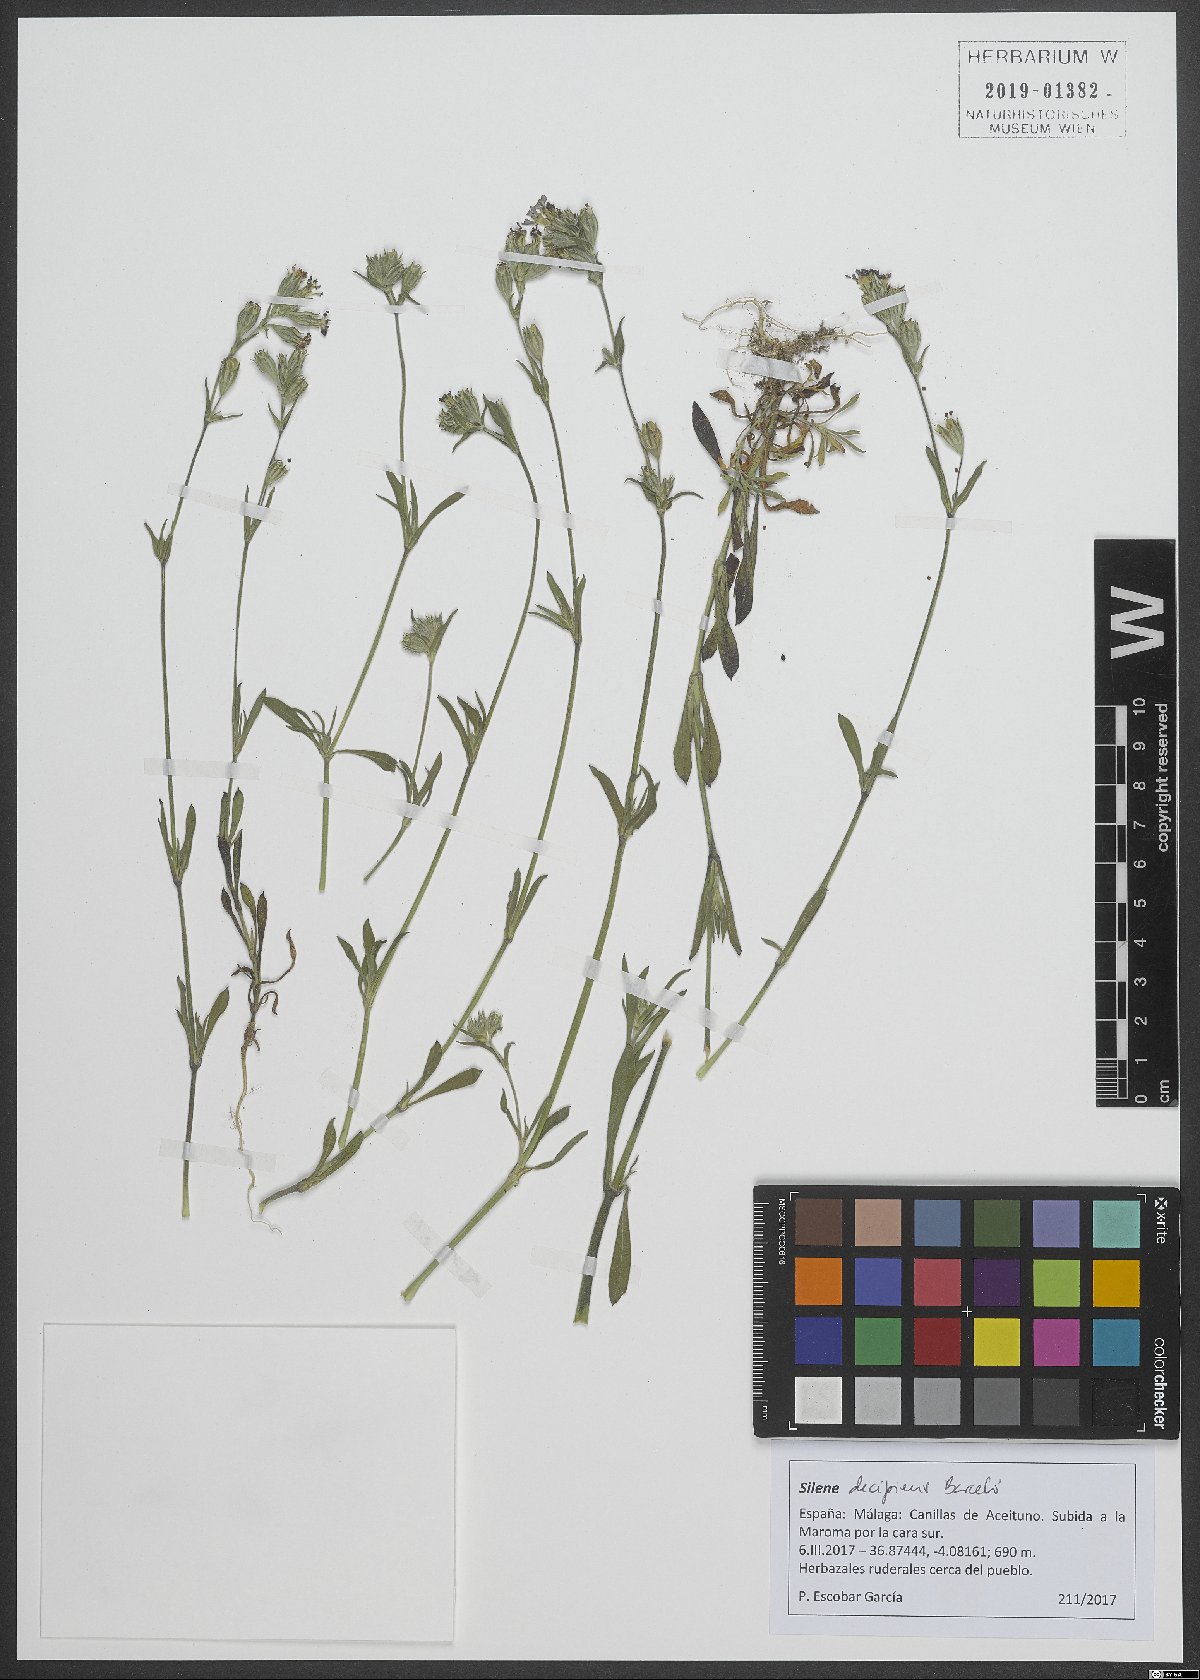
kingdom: Plantae
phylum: Tracheophyta
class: Magnoliopsida
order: Caryophyllales
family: Caryophyllaceae
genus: Silene
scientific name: Silene apetala
